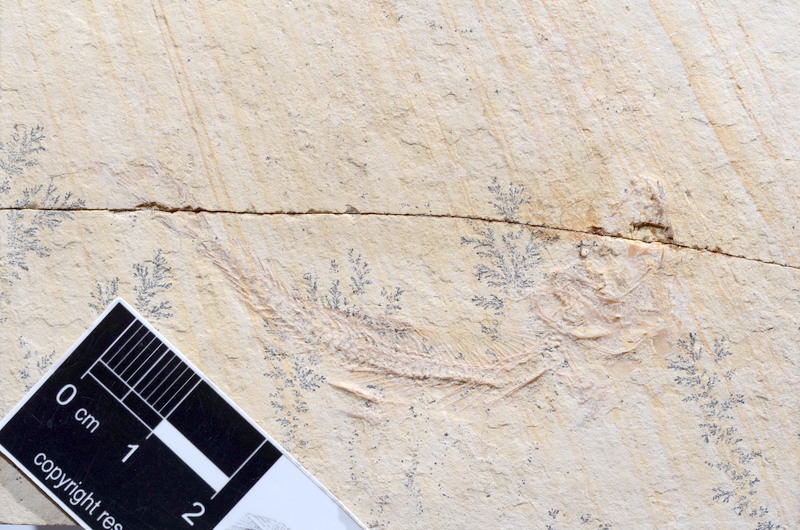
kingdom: Animalia
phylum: Chordata
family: Ascalaboidae
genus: Tharsis
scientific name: Tharsis dubius
